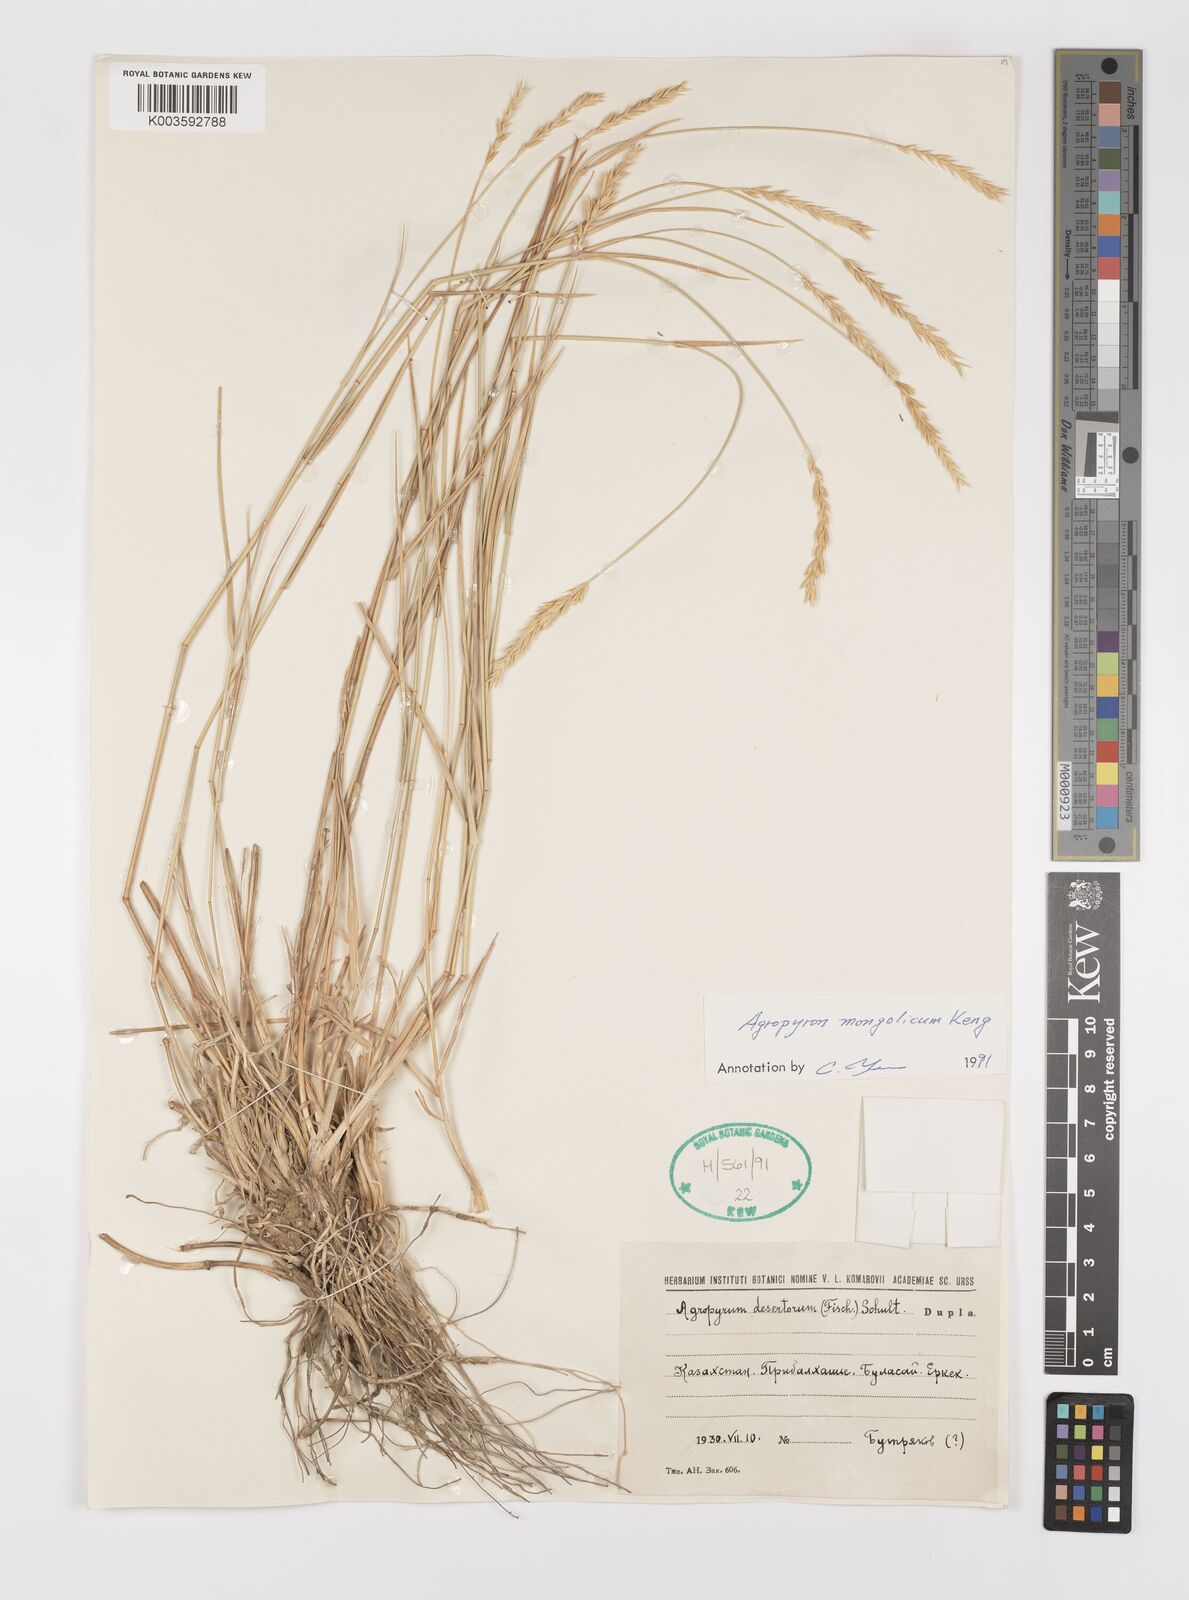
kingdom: Plantae
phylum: Tracheophyta
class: Liliopsida
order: Poales
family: Poaceae
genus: Agropyron
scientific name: Agropyron mongolicum
